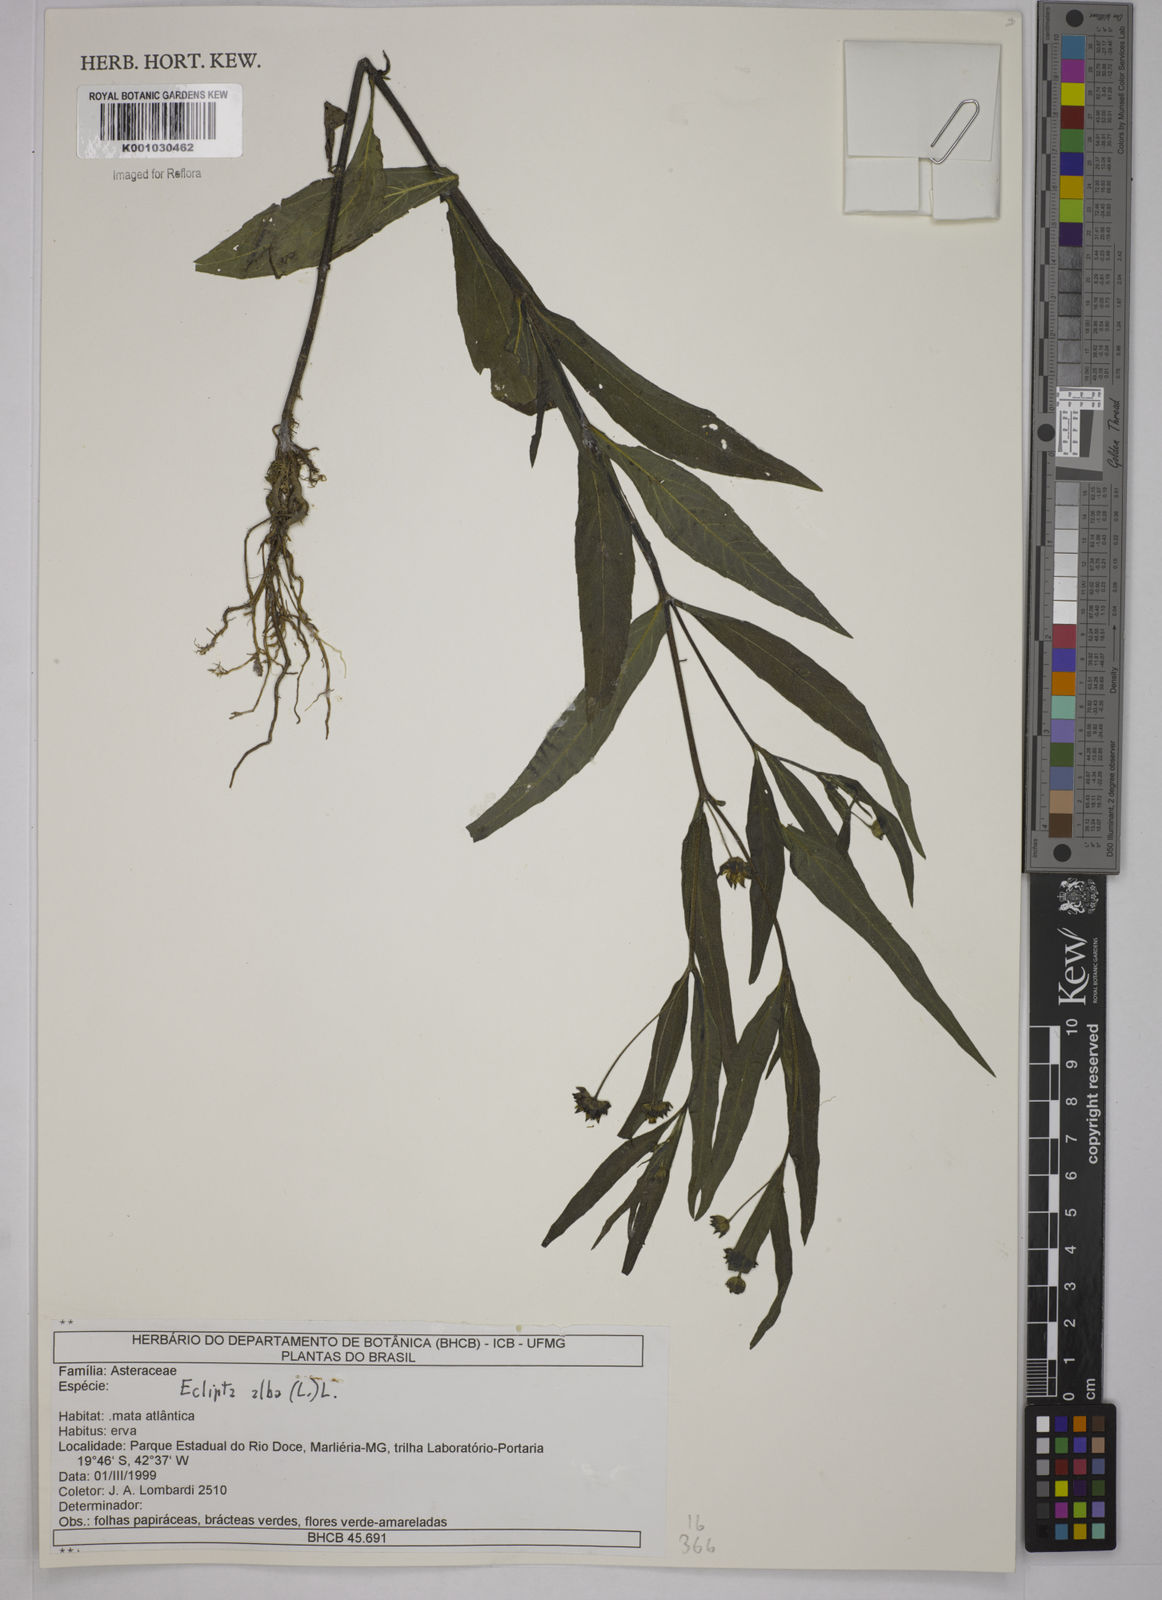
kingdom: Plantae
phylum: Tracheophyta
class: Magnoliopsida
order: Asterales
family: Asteraceae
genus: Eclipta
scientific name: Eclipta prostrata
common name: False daisy
